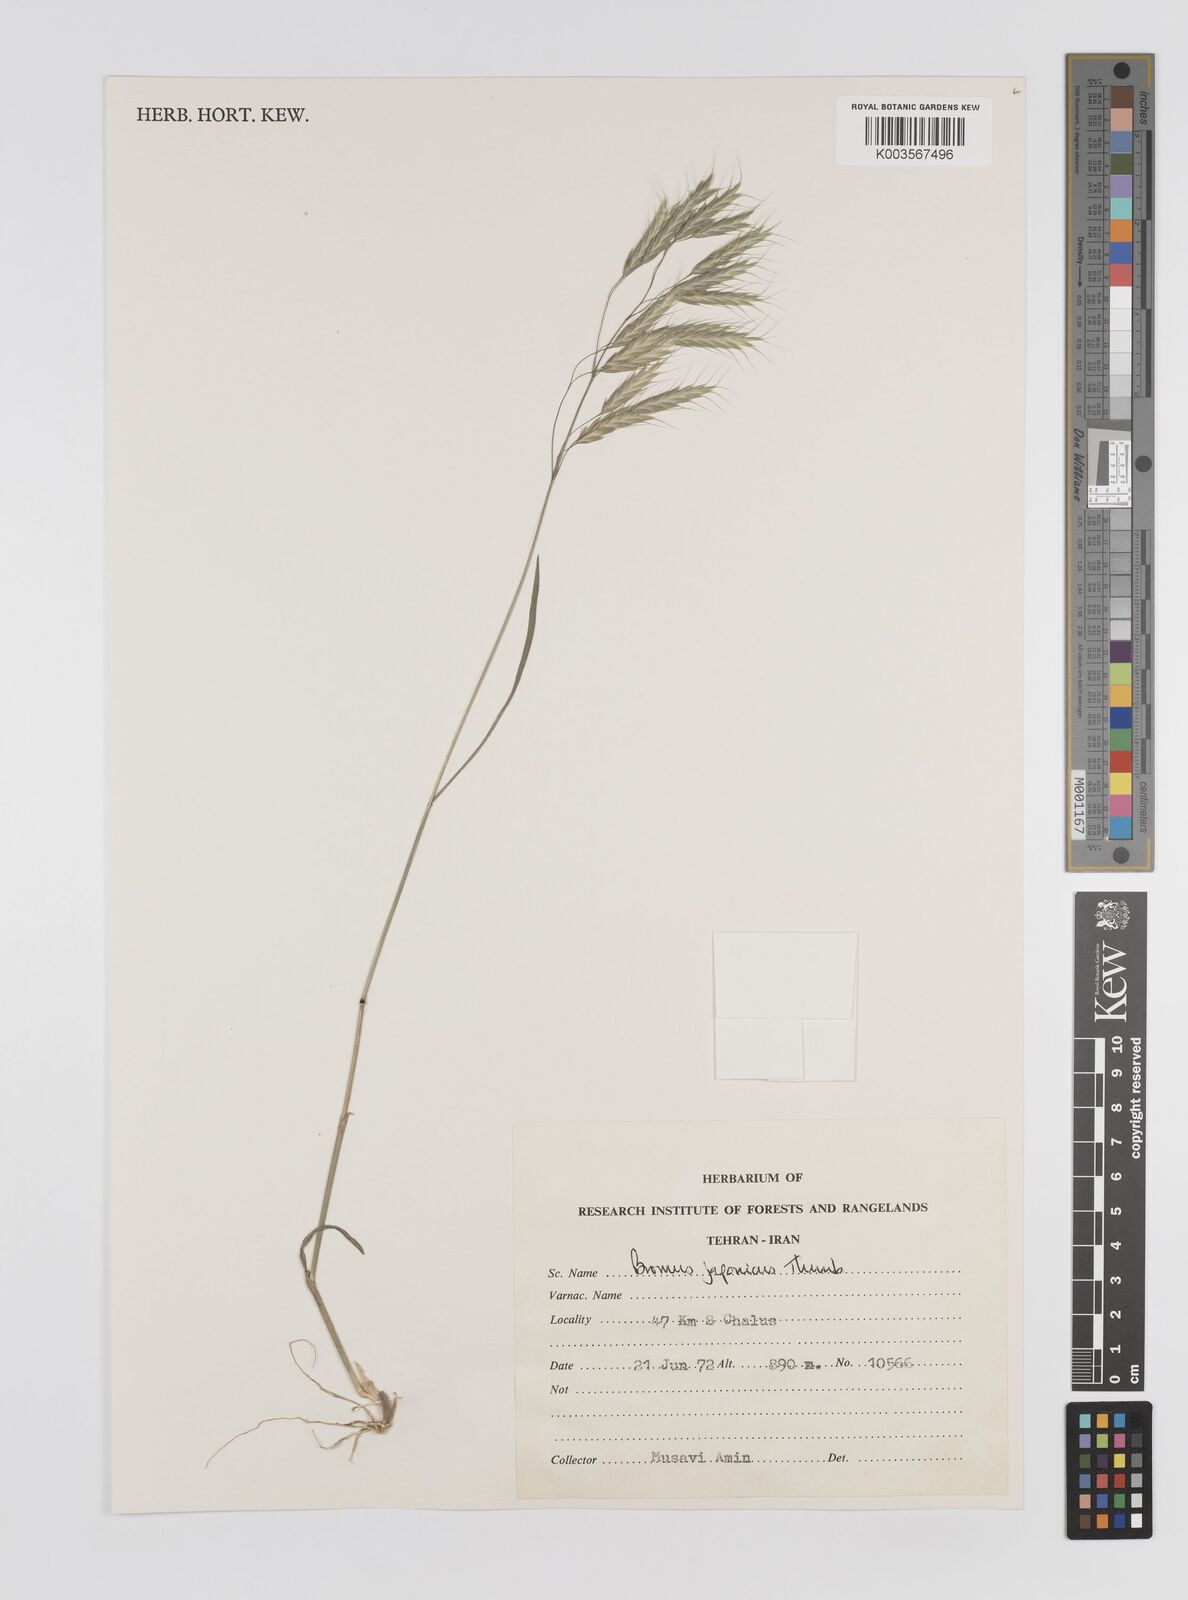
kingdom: Plantae
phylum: Tracheophyta
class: Liliopsida
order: Poales
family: Poaceae
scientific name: Poaceae
